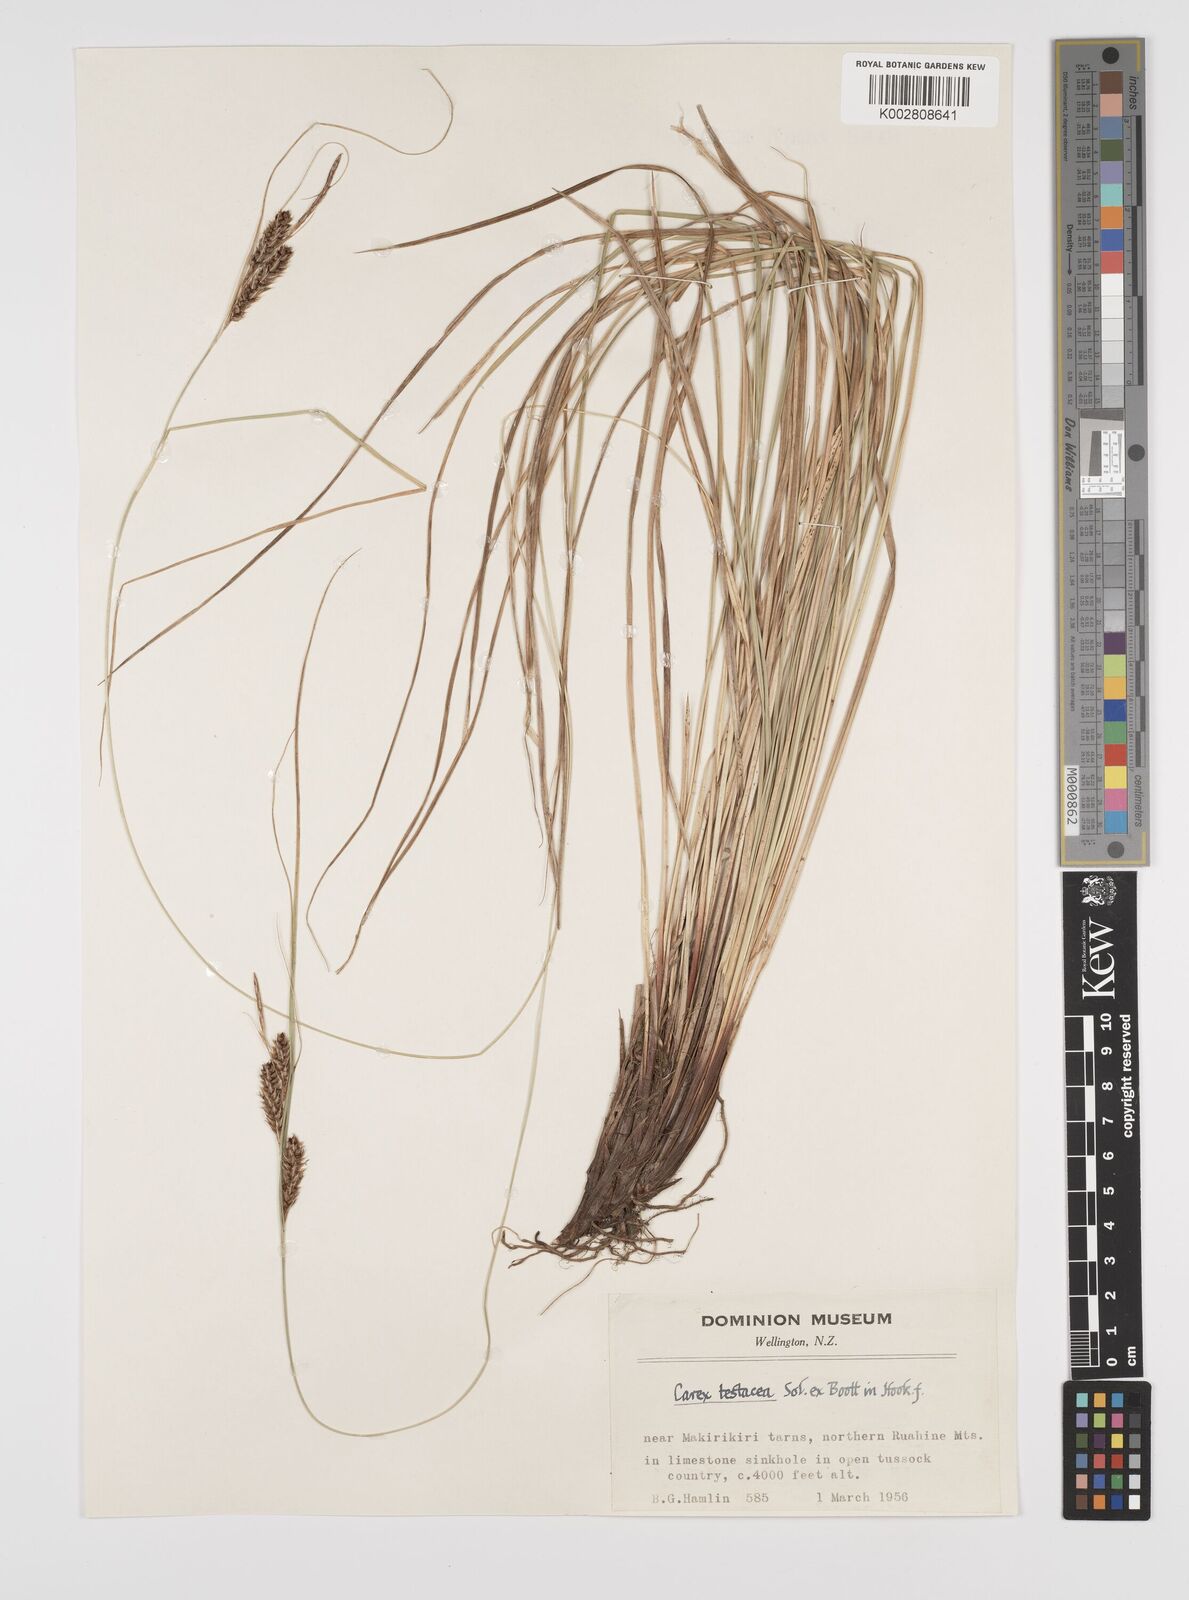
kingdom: Plantae
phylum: Tracheophyta
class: Liliopsida
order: Poales
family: Cyperaceae
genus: Carex
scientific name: Carex testacea
